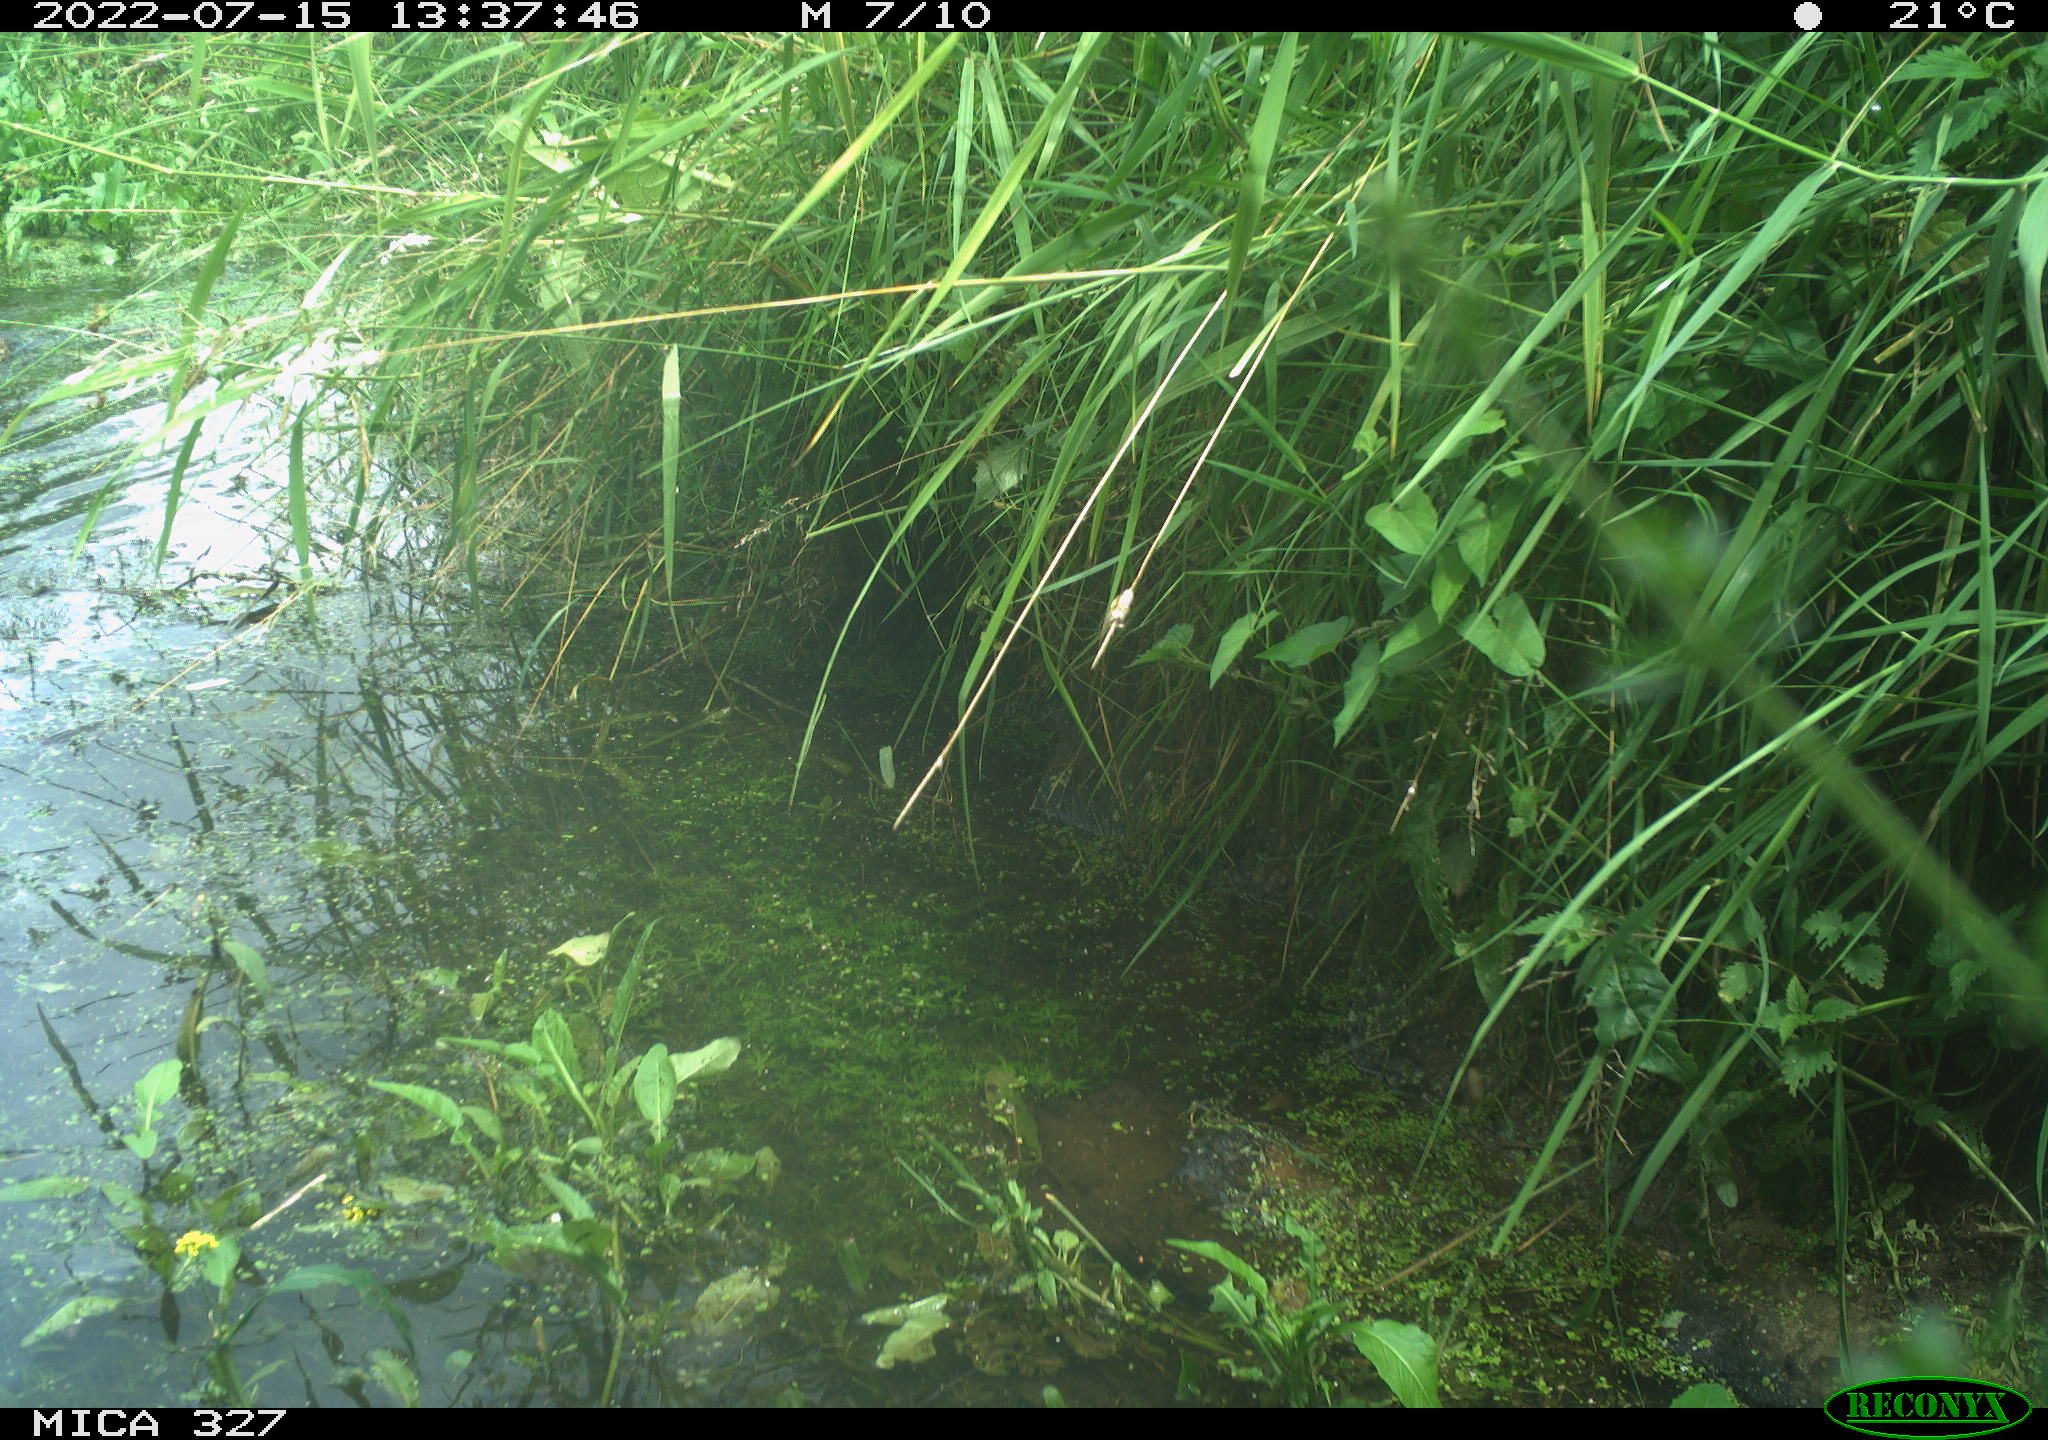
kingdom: Animalia
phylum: Chordata
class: Aves
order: Anseriformes
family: Anatidae
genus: Anas
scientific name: Anas
